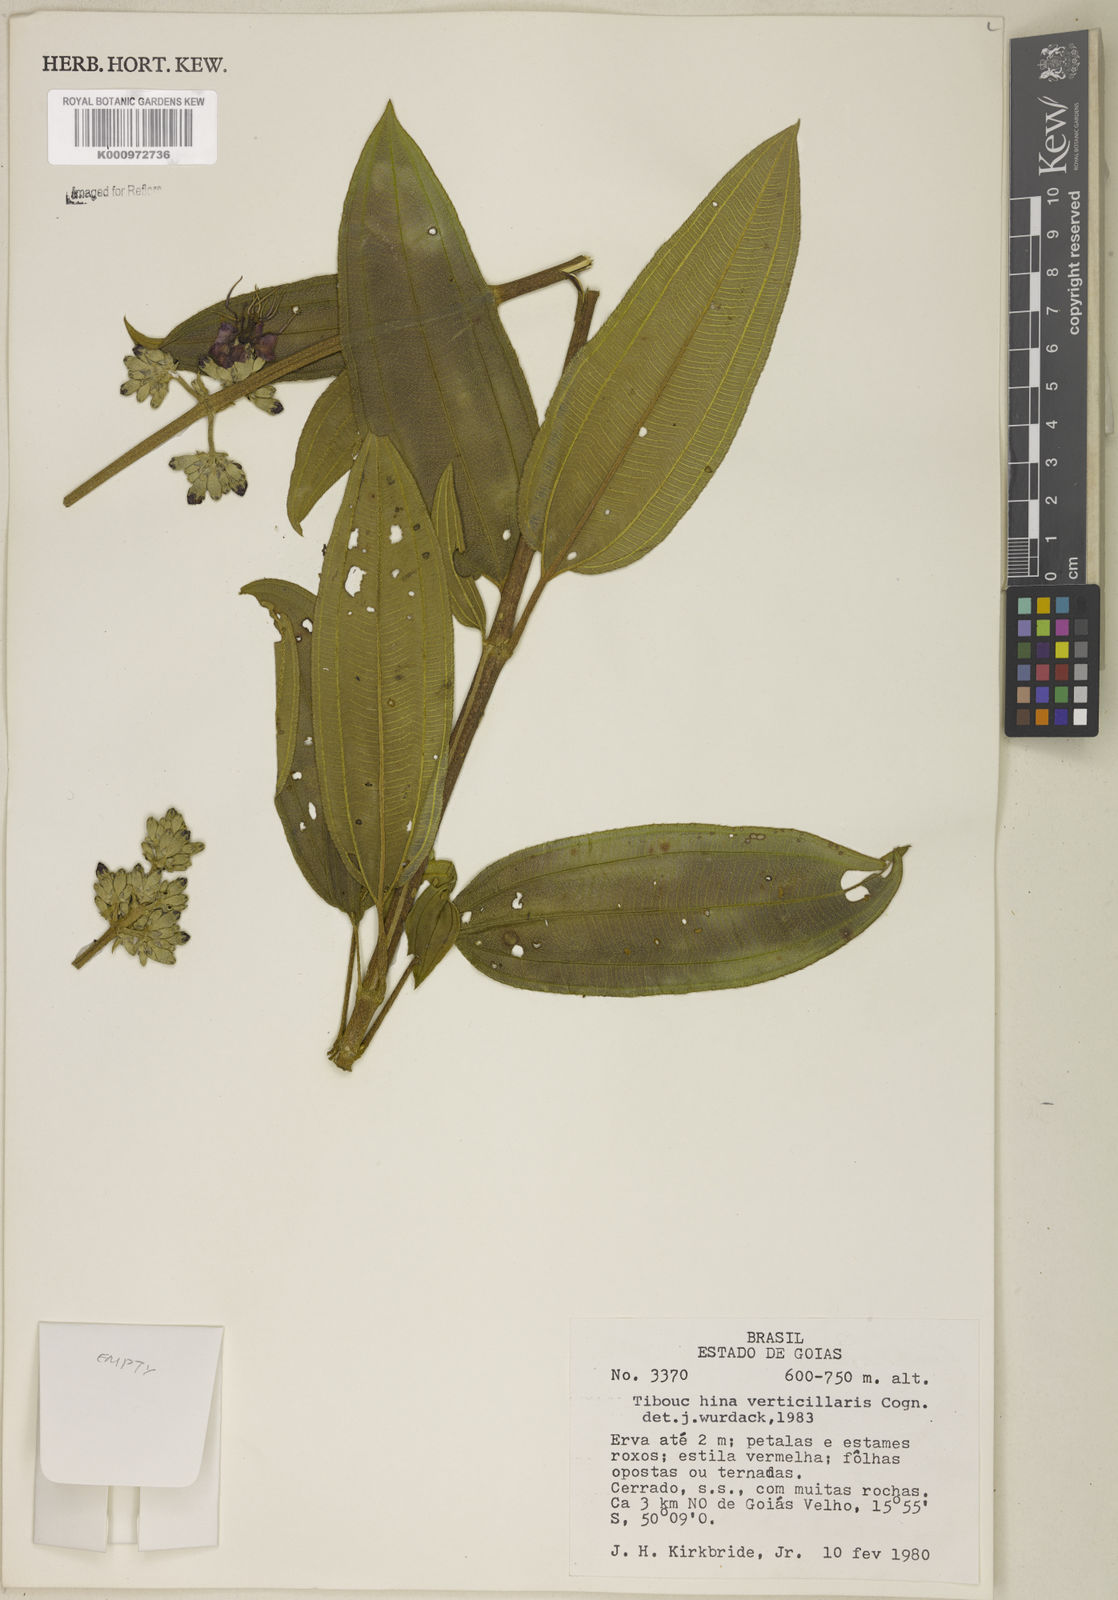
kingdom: Plantae
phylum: Tracheophyta
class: Magnoliopsida
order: Myrtales
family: Melastomataceae
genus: Tibouchina
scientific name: Tibouchina verticillaris
